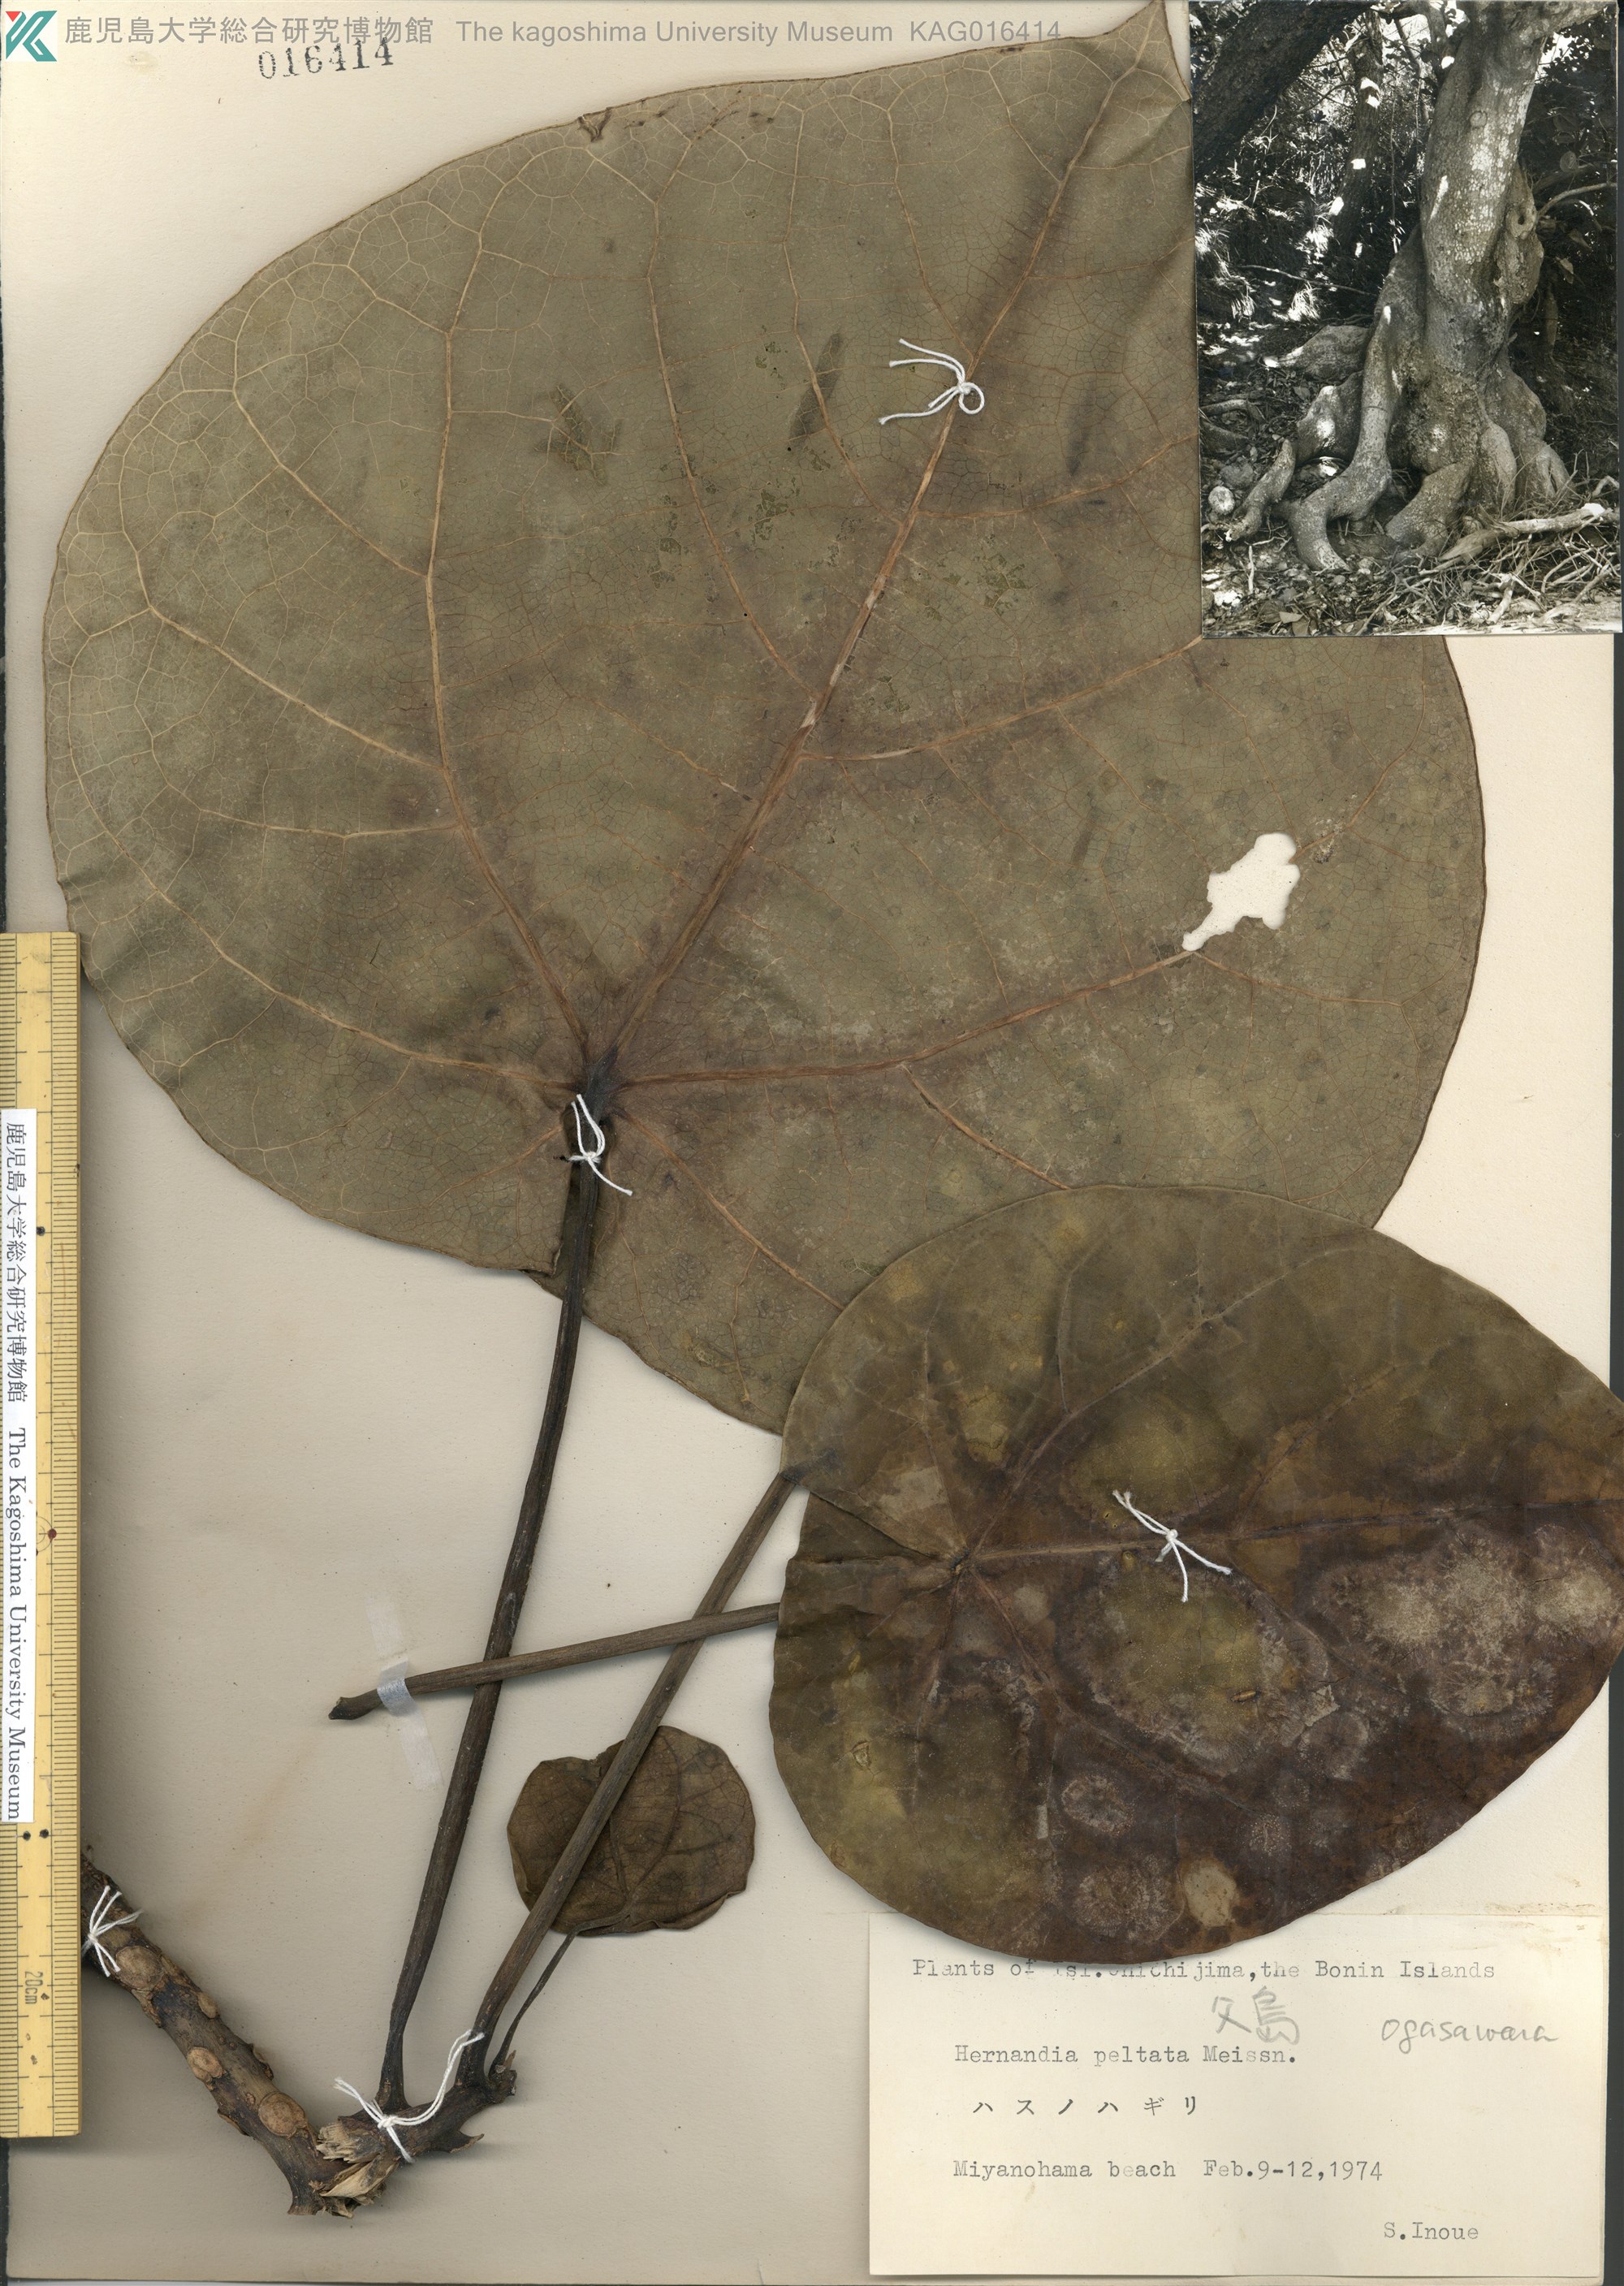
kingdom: Plantae
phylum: Tracheophyta
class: Magnoliopsida
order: Laurales
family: Hernandiaceae
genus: Hernandia
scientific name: Hernandia nymphaeifolia
